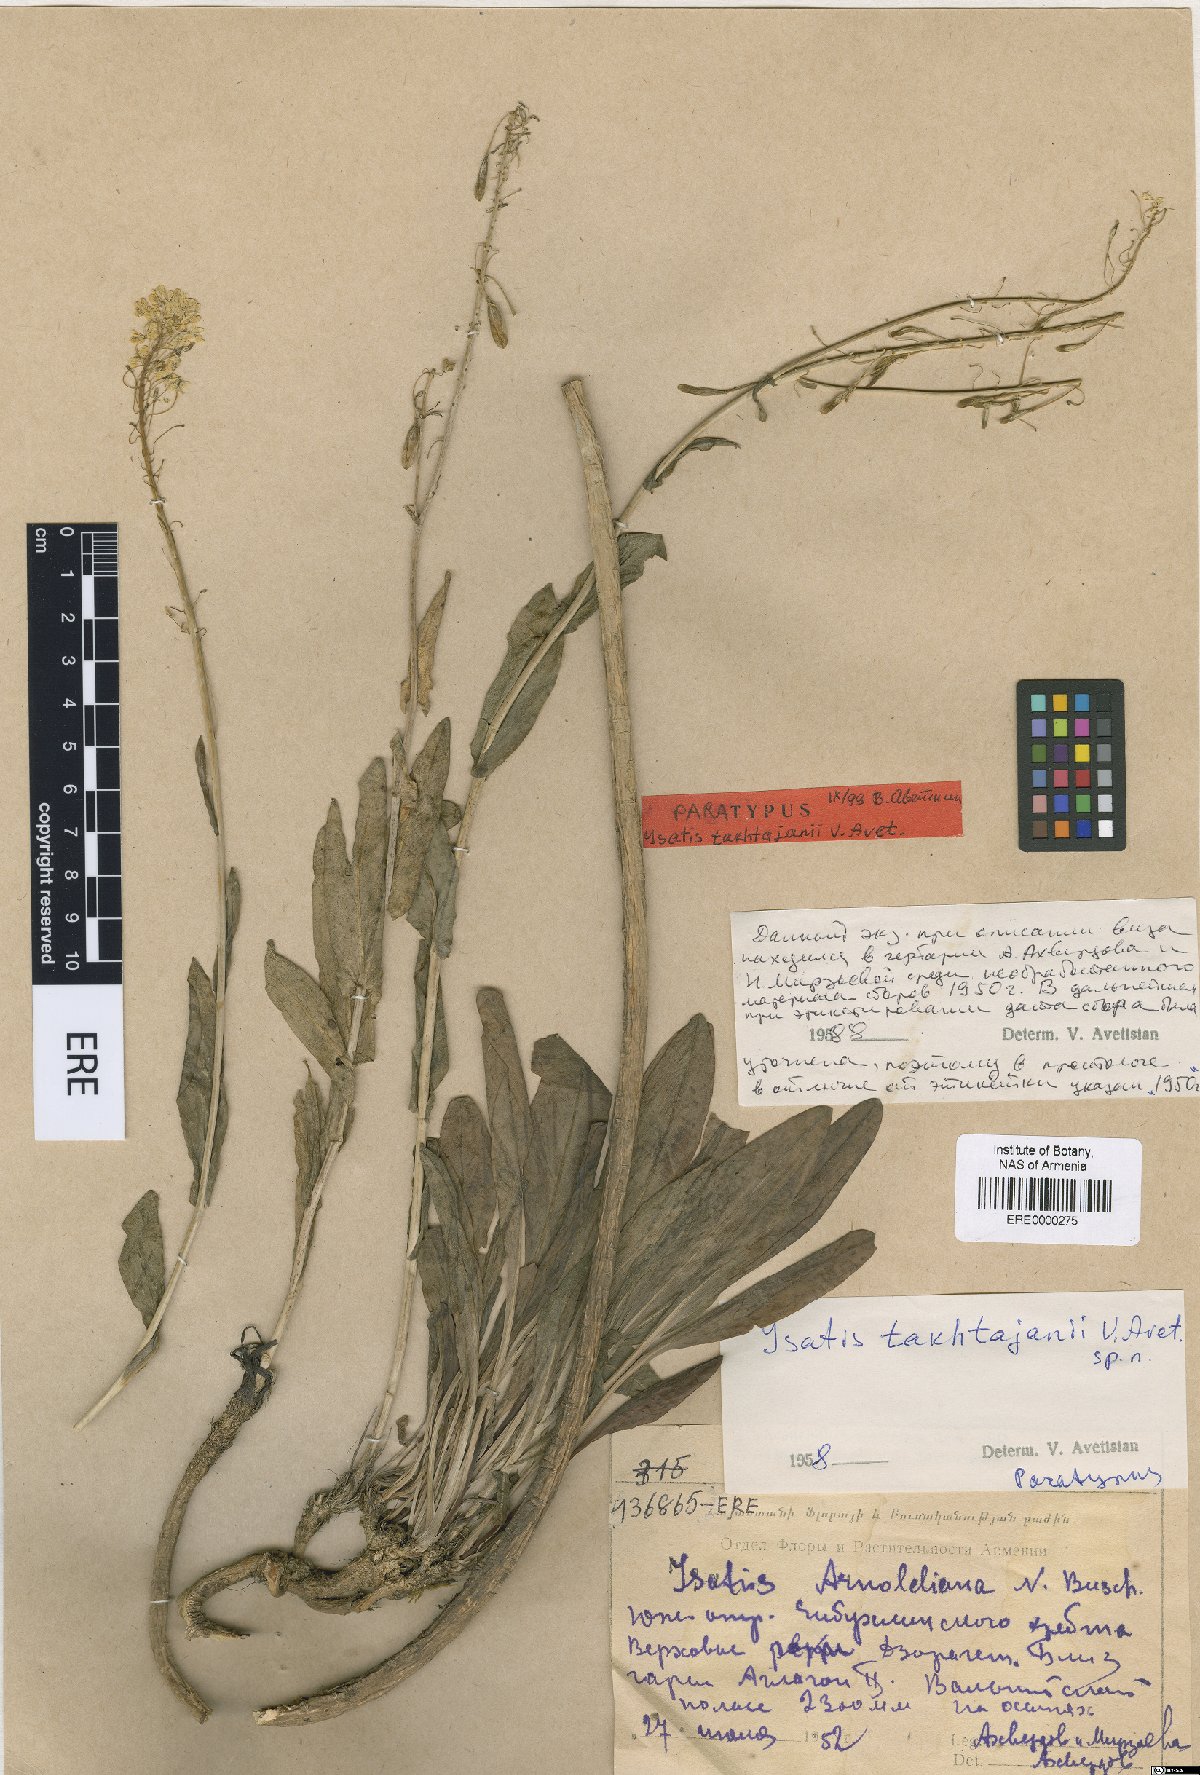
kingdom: Plantae
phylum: Tracheophyta
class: Magnoliopsida
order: Brassicales
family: Brassicaceae
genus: Isatis
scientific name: Isatis takhtajanii
